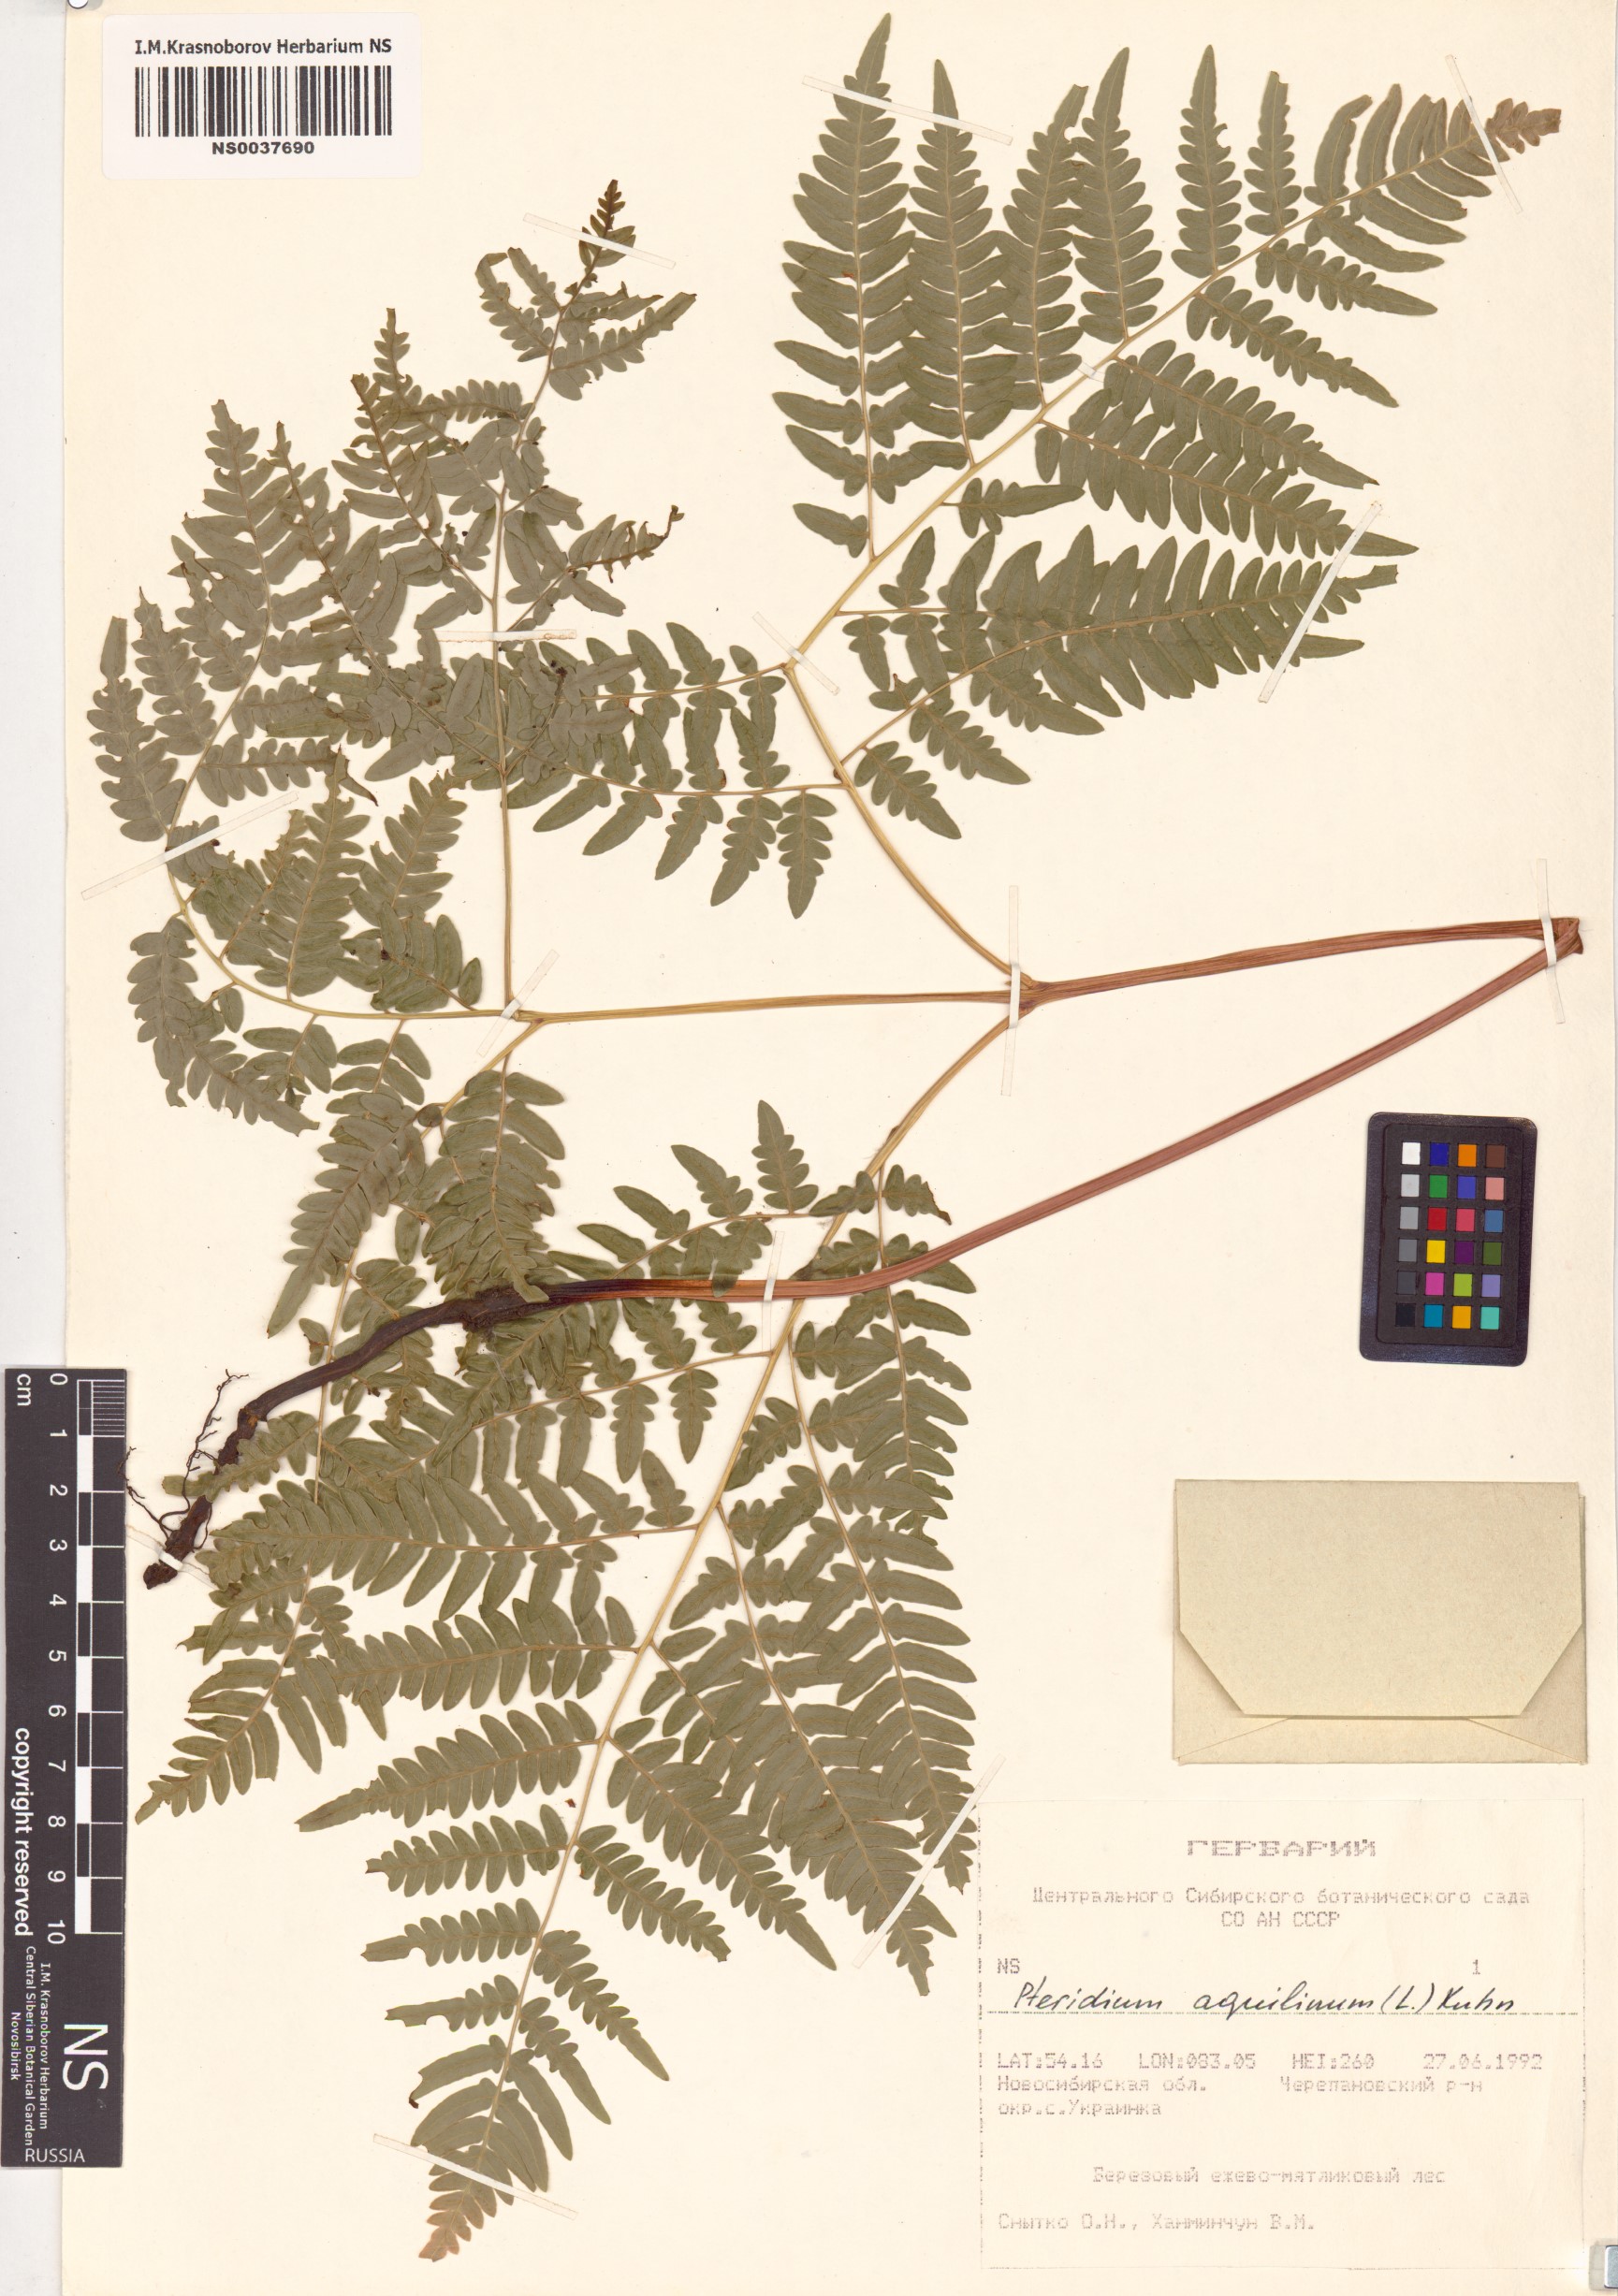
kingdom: Plantae
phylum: Tracheophyta
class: Polypodiopsida
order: Polypodiales
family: Dennstaedtiaceae
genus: Pteridium
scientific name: Pteridium aquilinum
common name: Bracken
